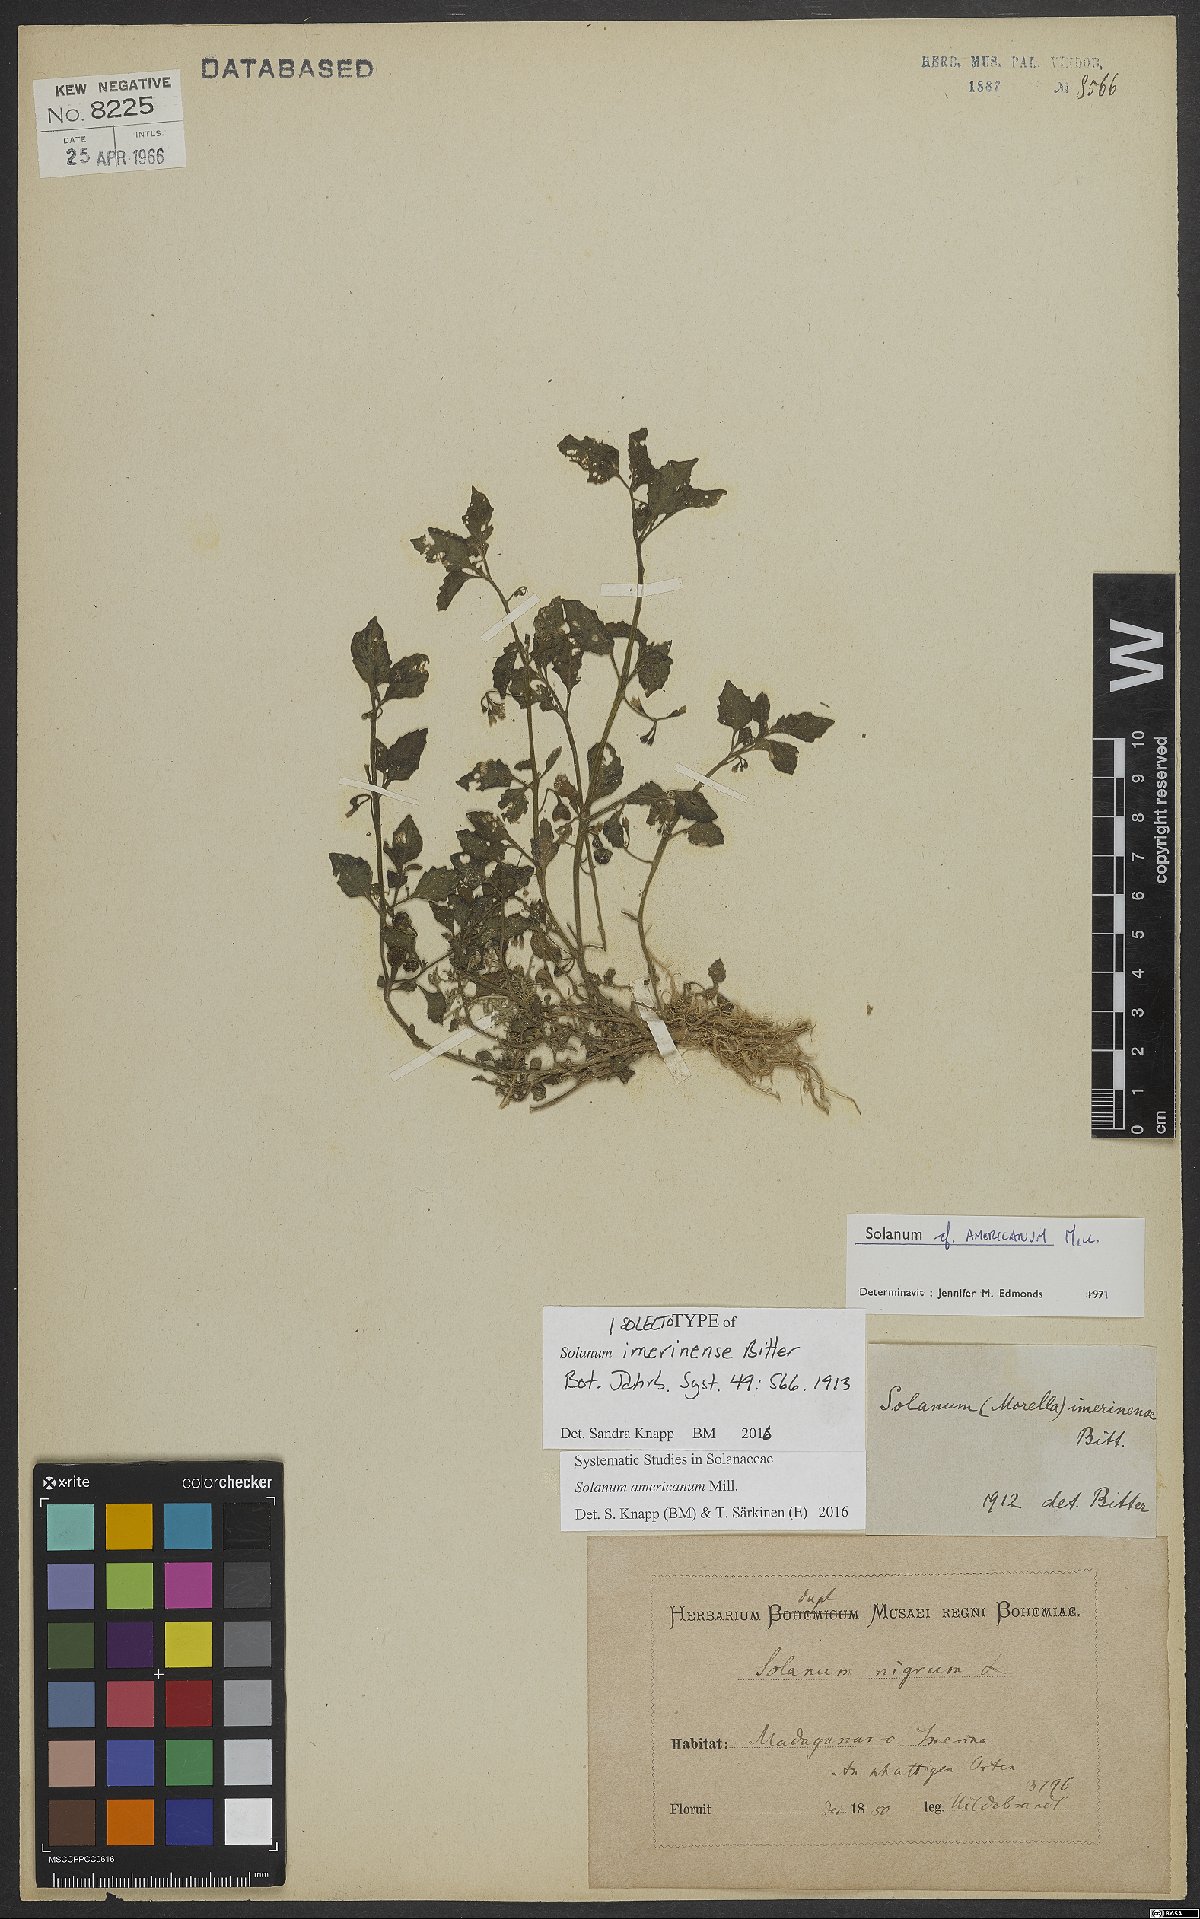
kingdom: Plantae
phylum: Tracheophyta
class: Magnoliopsida
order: Solanales
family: Solanaceae
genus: Solanum
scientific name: Solanum americanum
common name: American black nightshade
